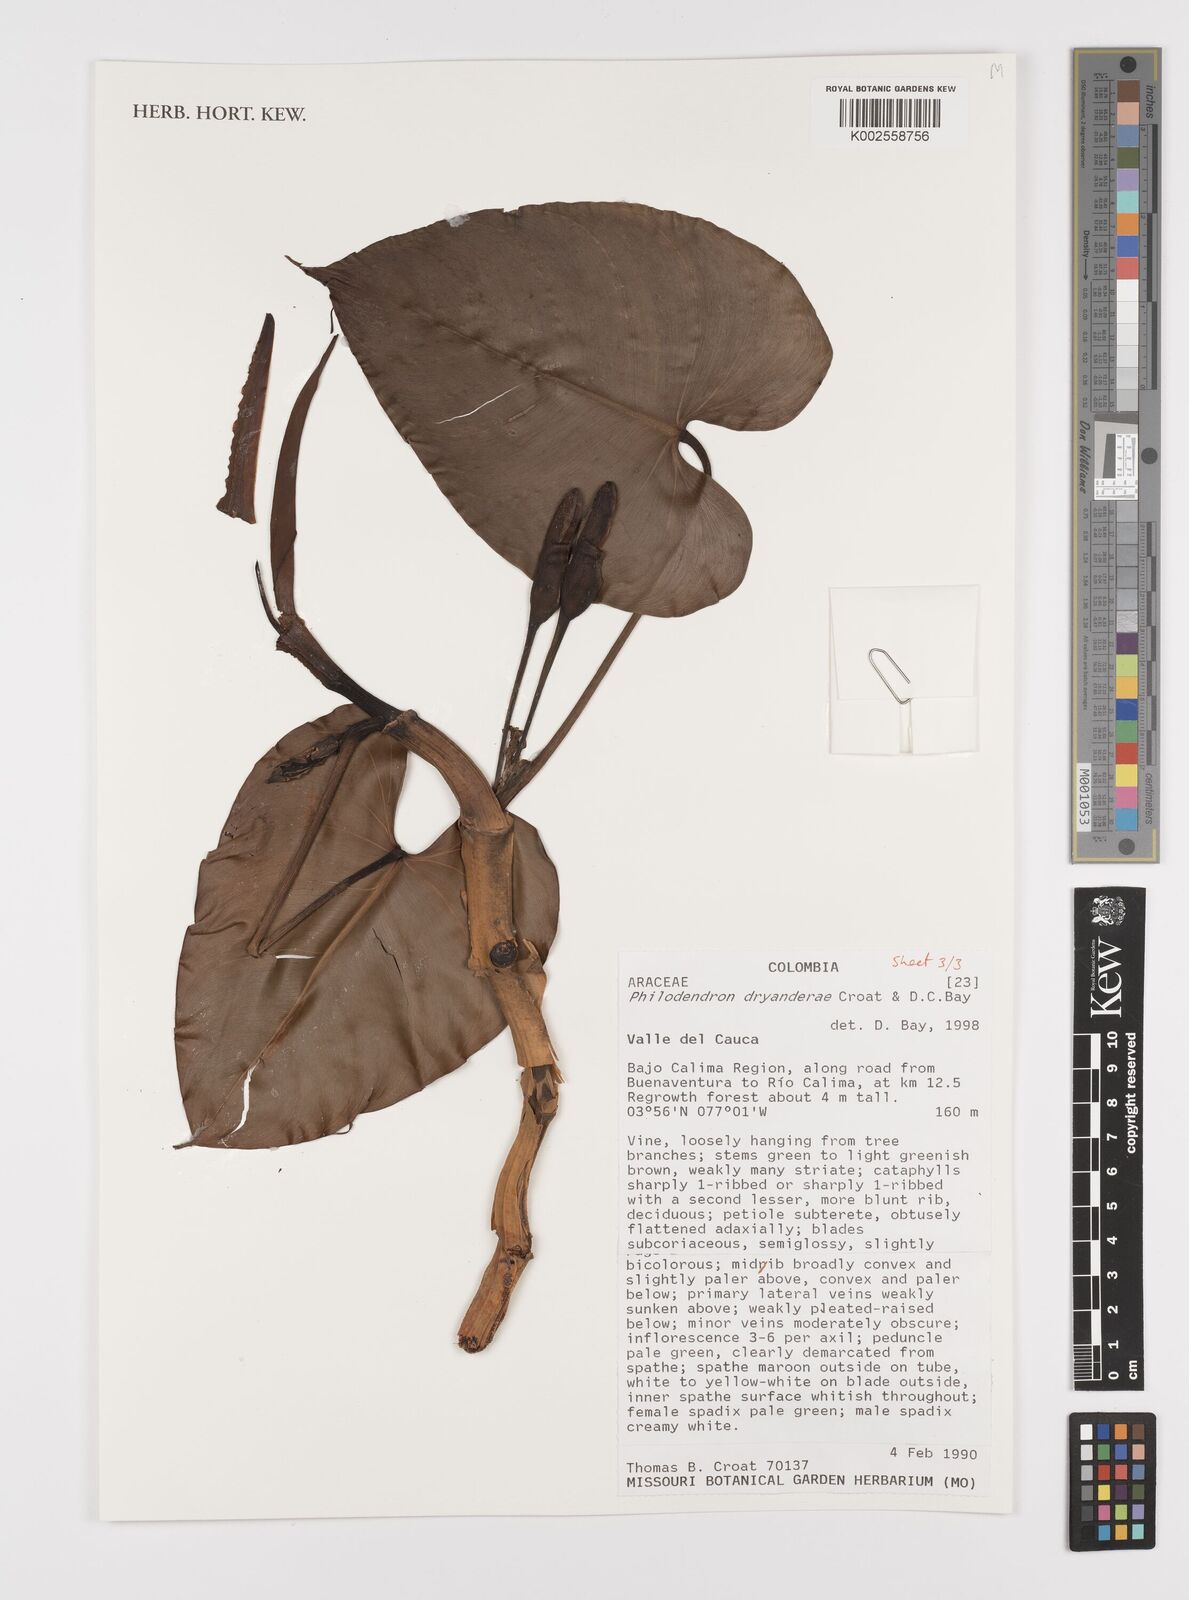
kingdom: Plantae
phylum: Tracheophyta
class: Liliopsida
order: Alismatales
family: Araceae
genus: Philodendron
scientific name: Philodendron dryanderae
